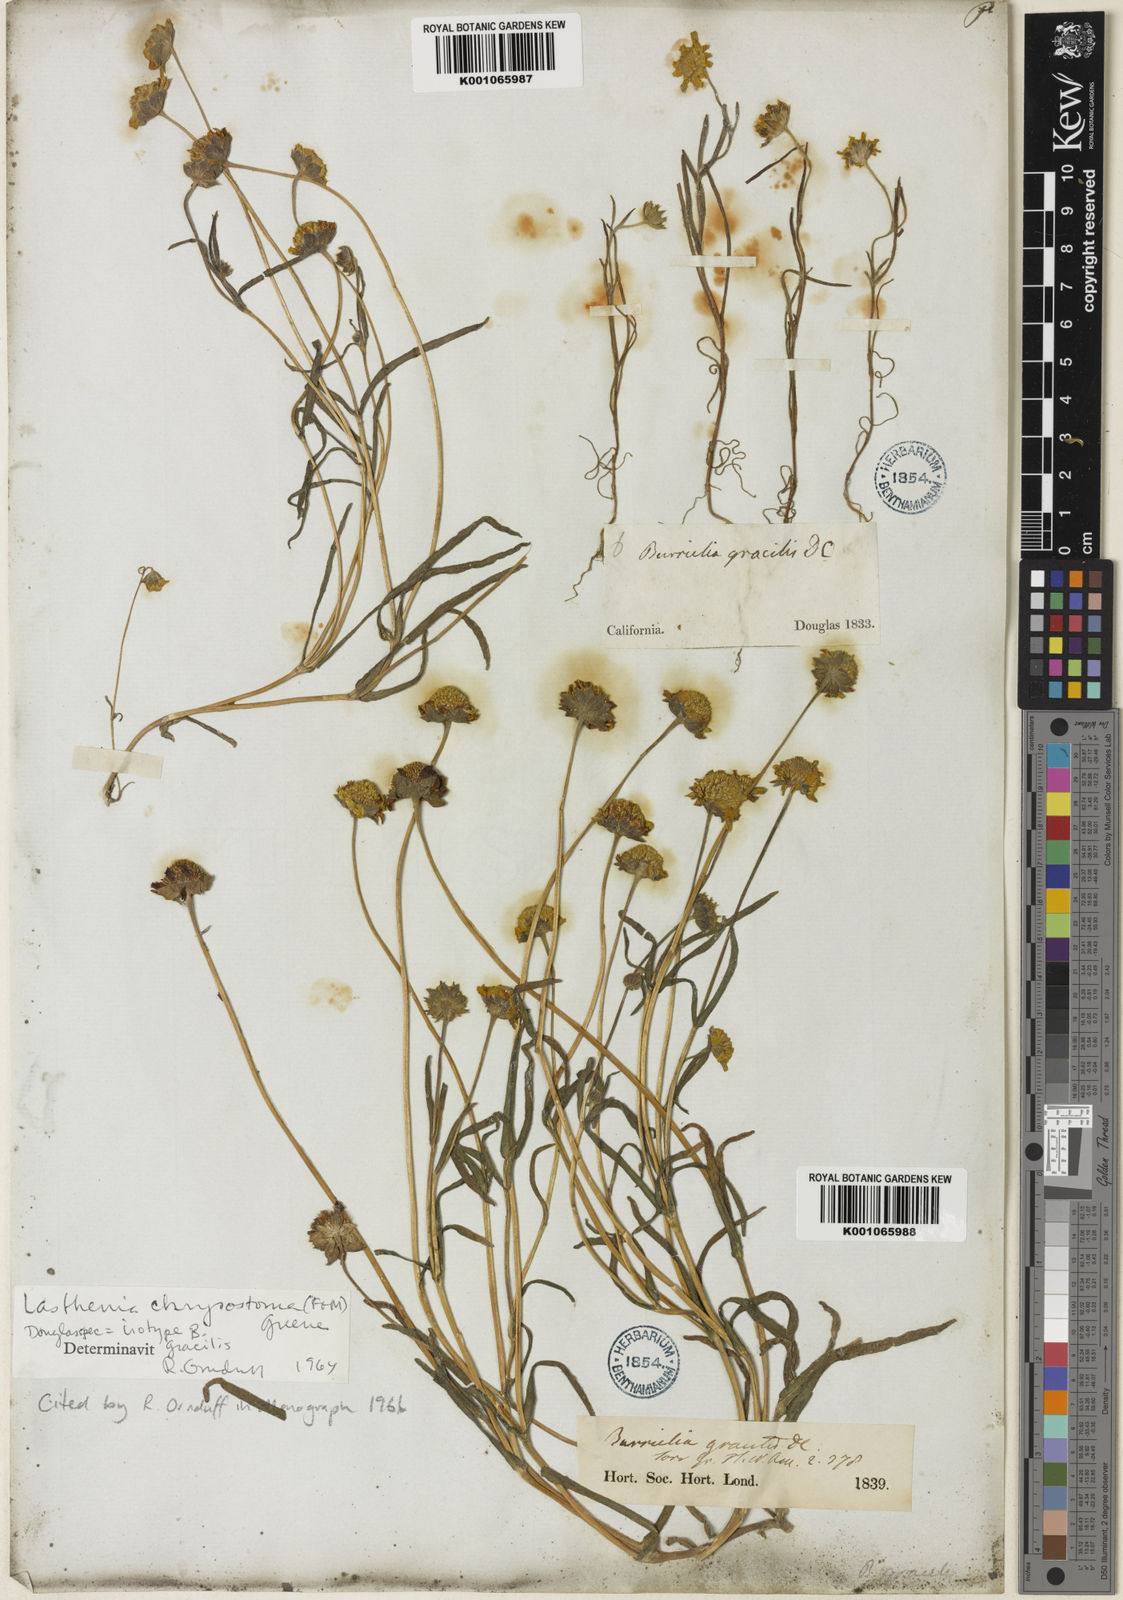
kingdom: Plantae
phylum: Tracheophyta
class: Magnoliopsida
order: Asterales
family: Asteraceae
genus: Lasthenia
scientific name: Lasthenia californica
